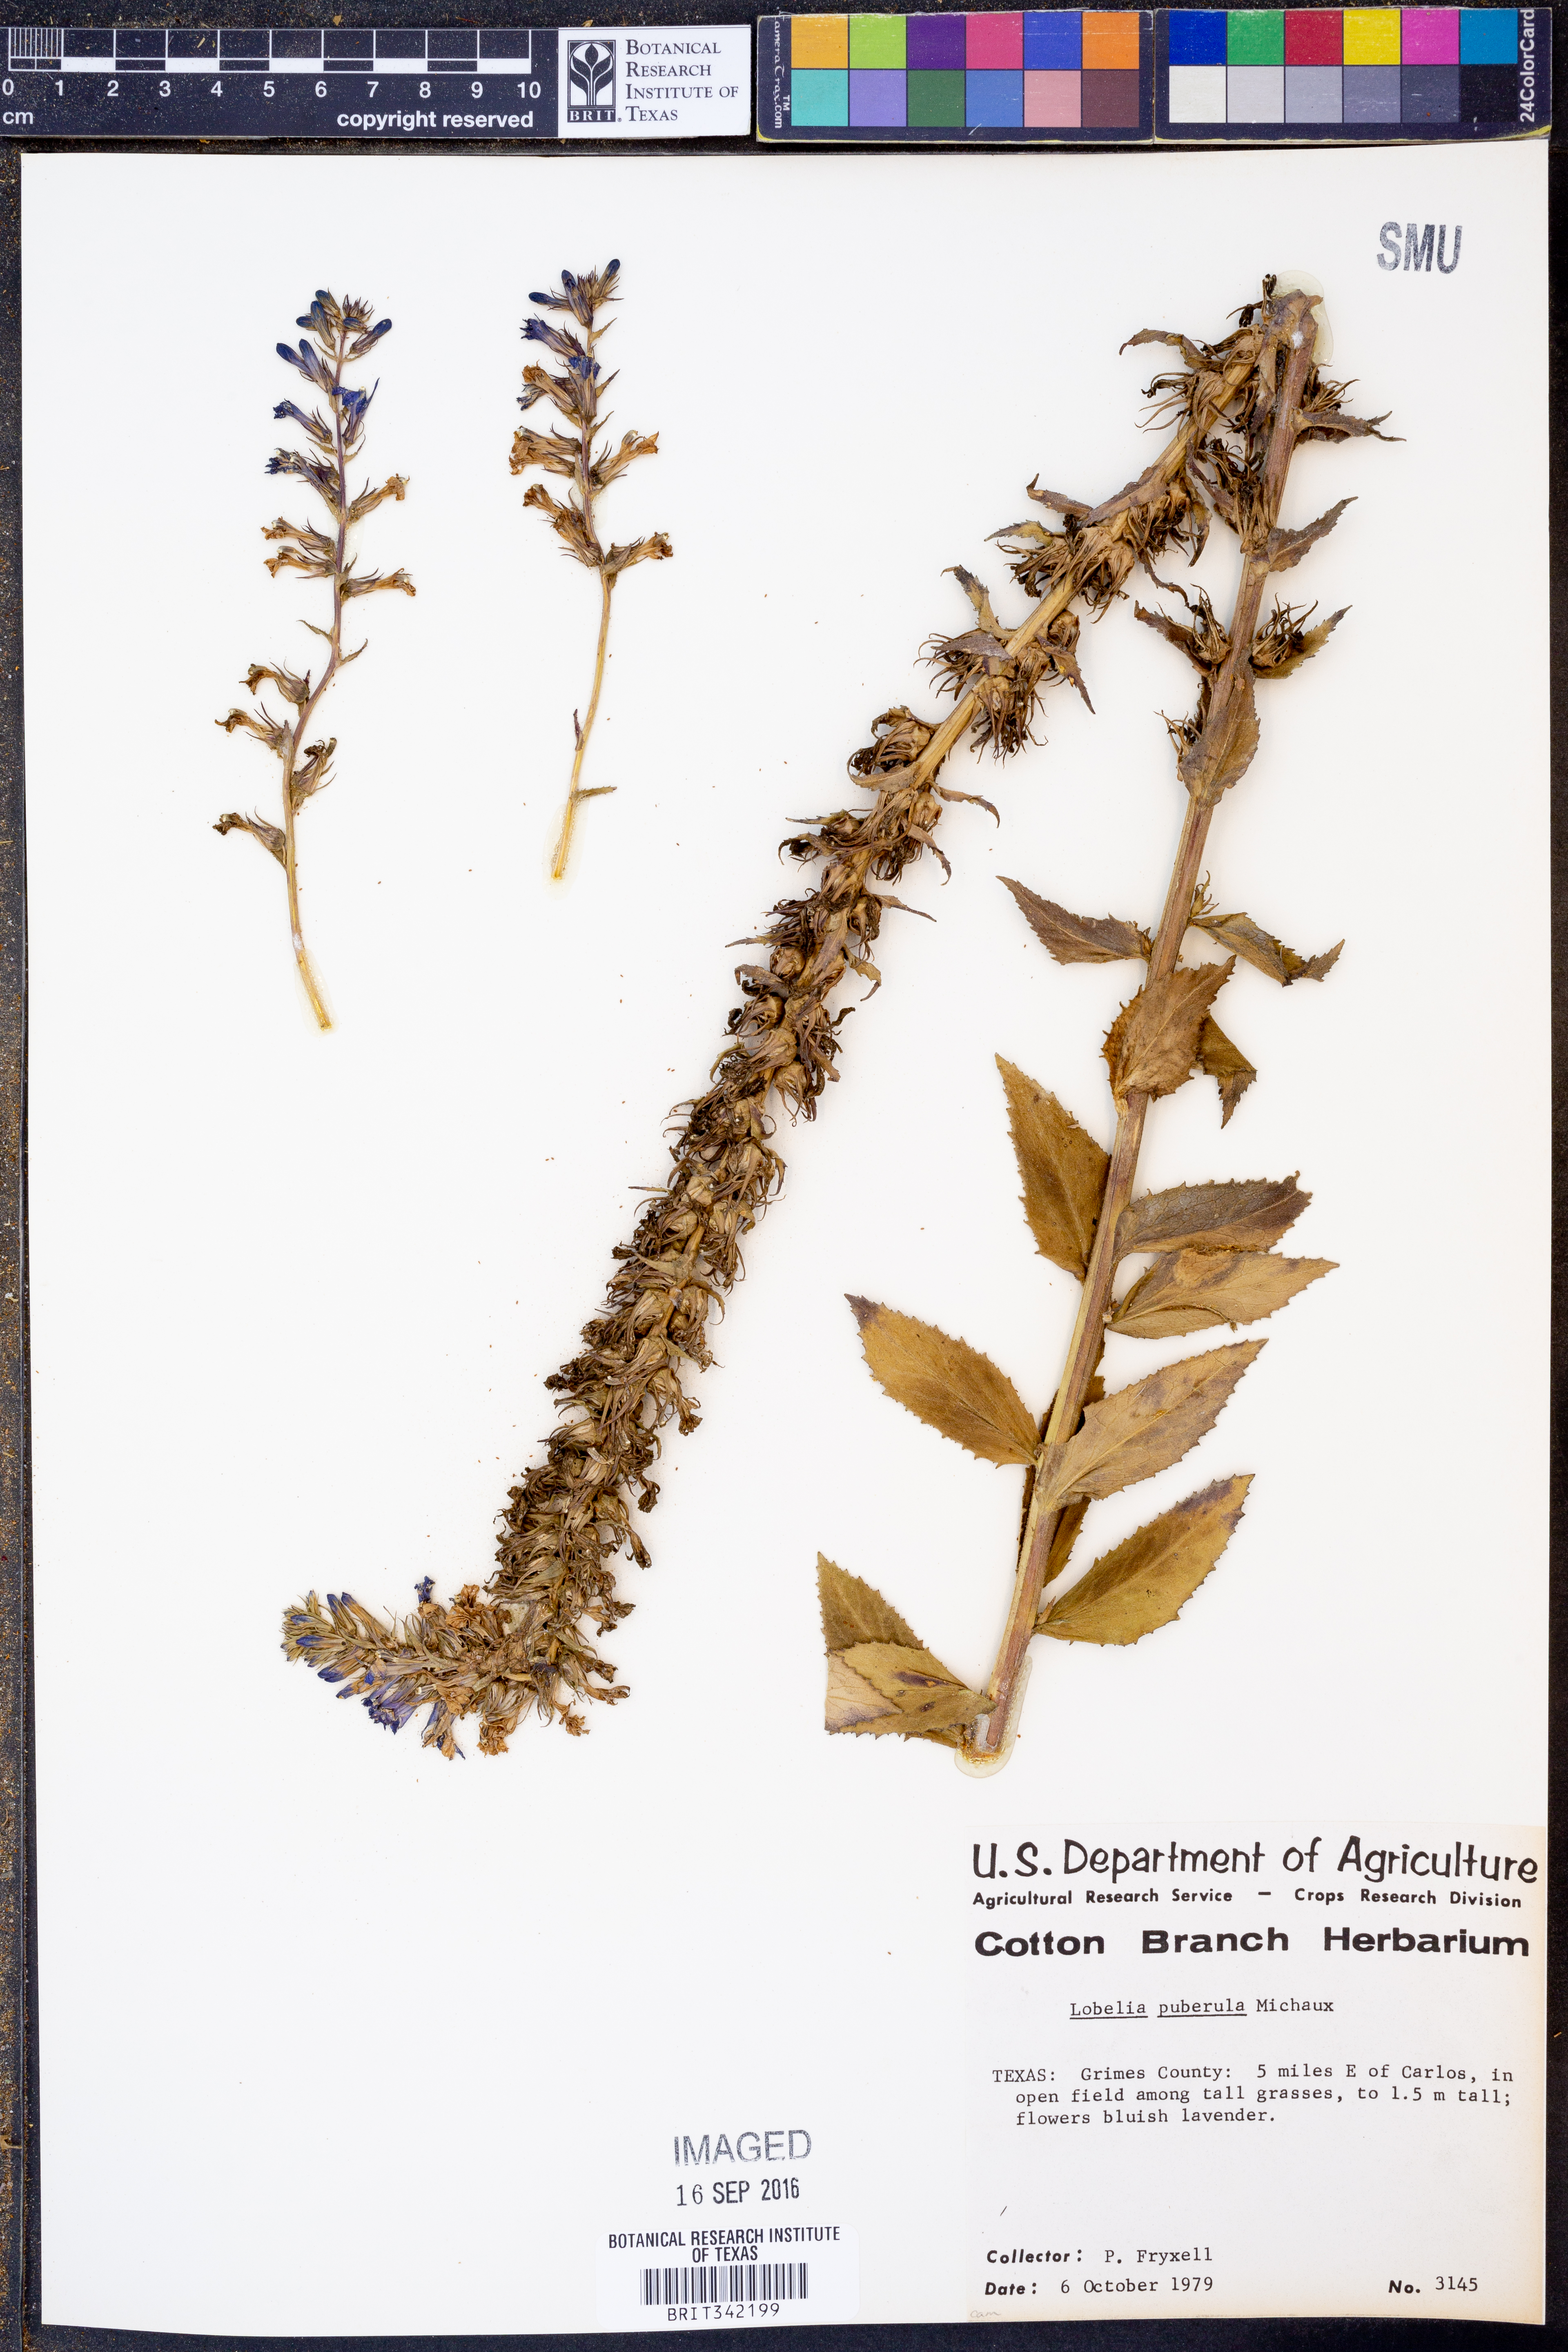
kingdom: Plantae
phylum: Tracheophyta
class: Magnoliopsida
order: Asterales
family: Campanulaceae
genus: Lobelia
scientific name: Lobelia puberula
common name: Purple dewdrop
